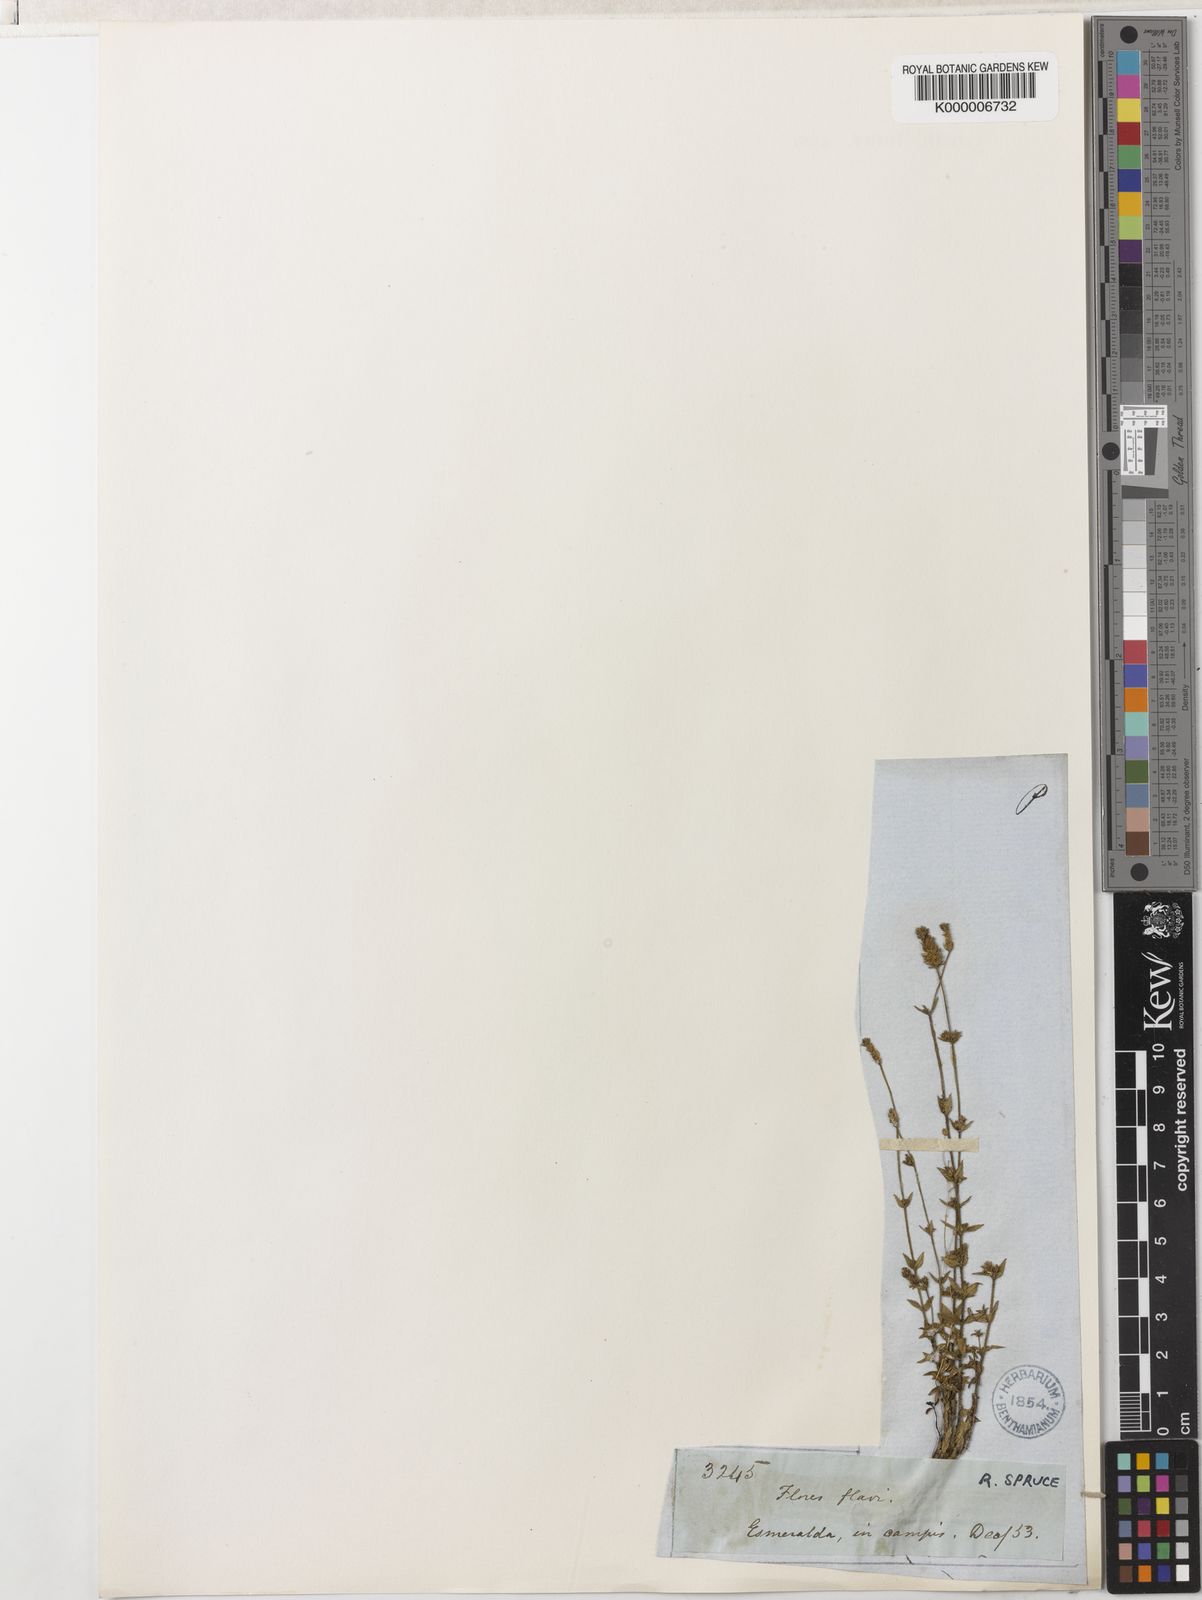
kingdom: Plantae
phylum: Tracheophyta
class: Magnoliopsida
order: Gentianales
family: Rubiaceae
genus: Perama
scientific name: Perama
